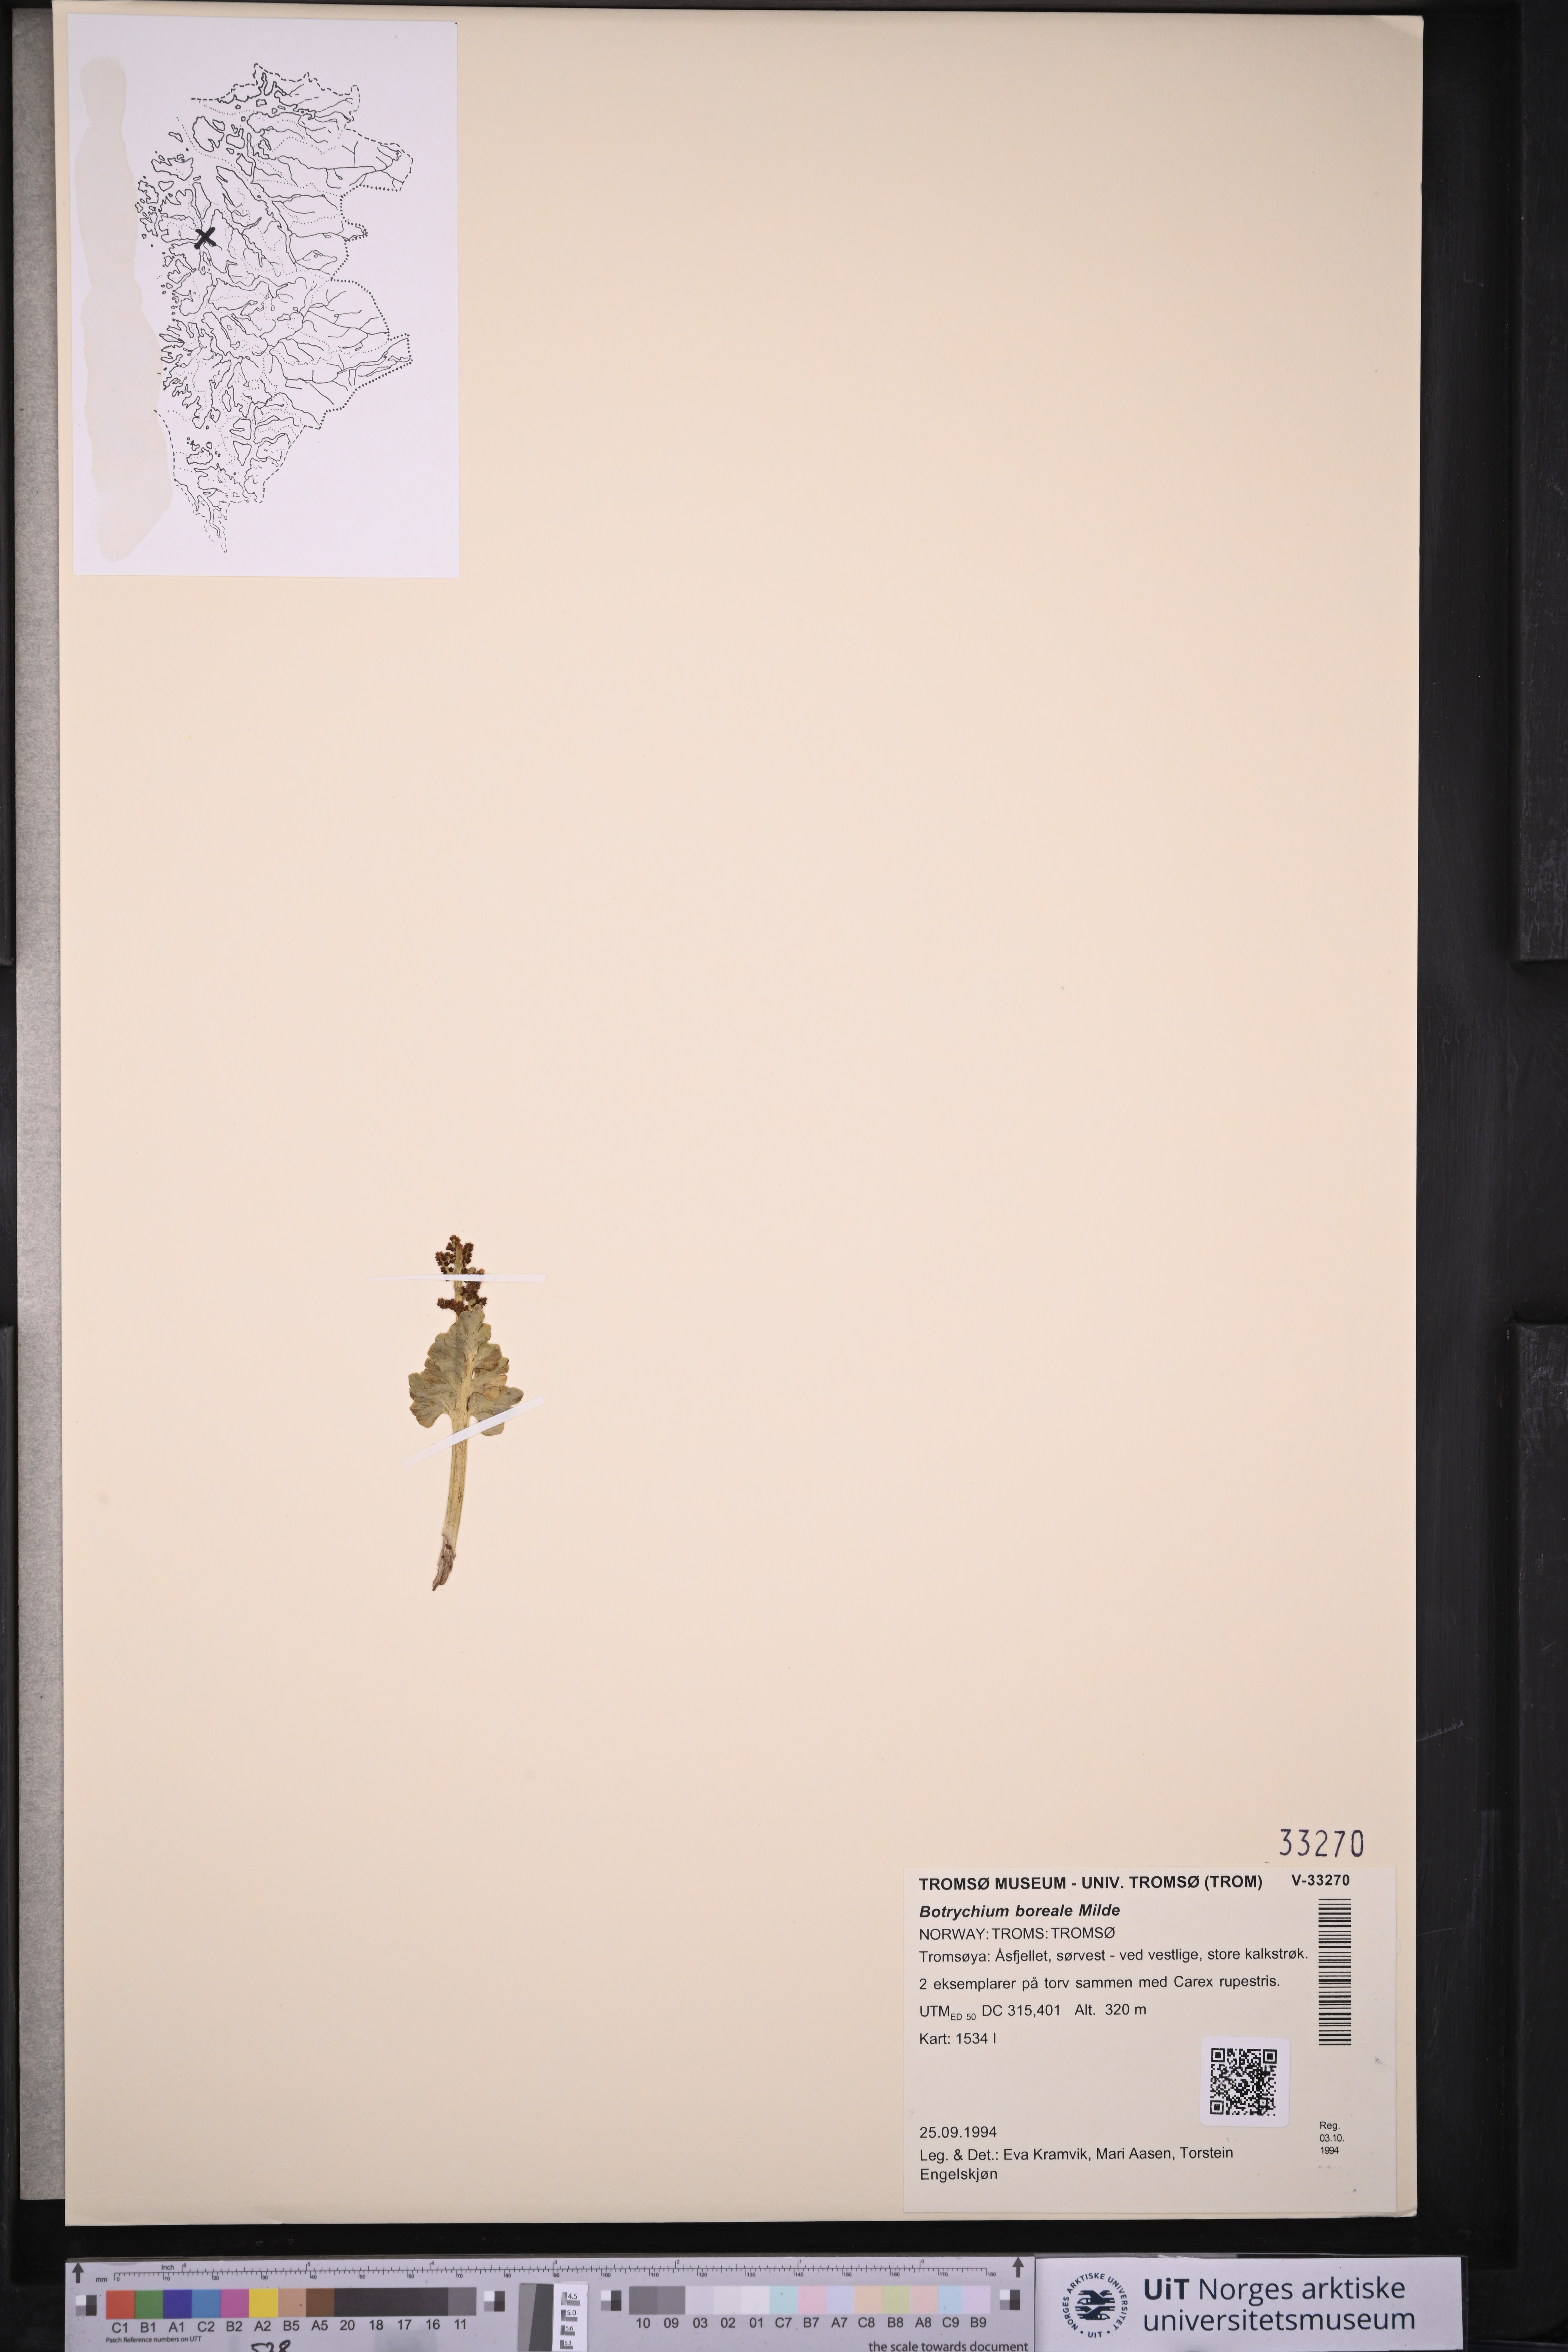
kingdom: Plantae
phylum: Tracheophyta
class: Polypodiopsida
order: Ophioglossales
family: Ophioglossaceae
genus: Botrychium
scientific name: Botrychium boreale
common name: Boreal moonwort
